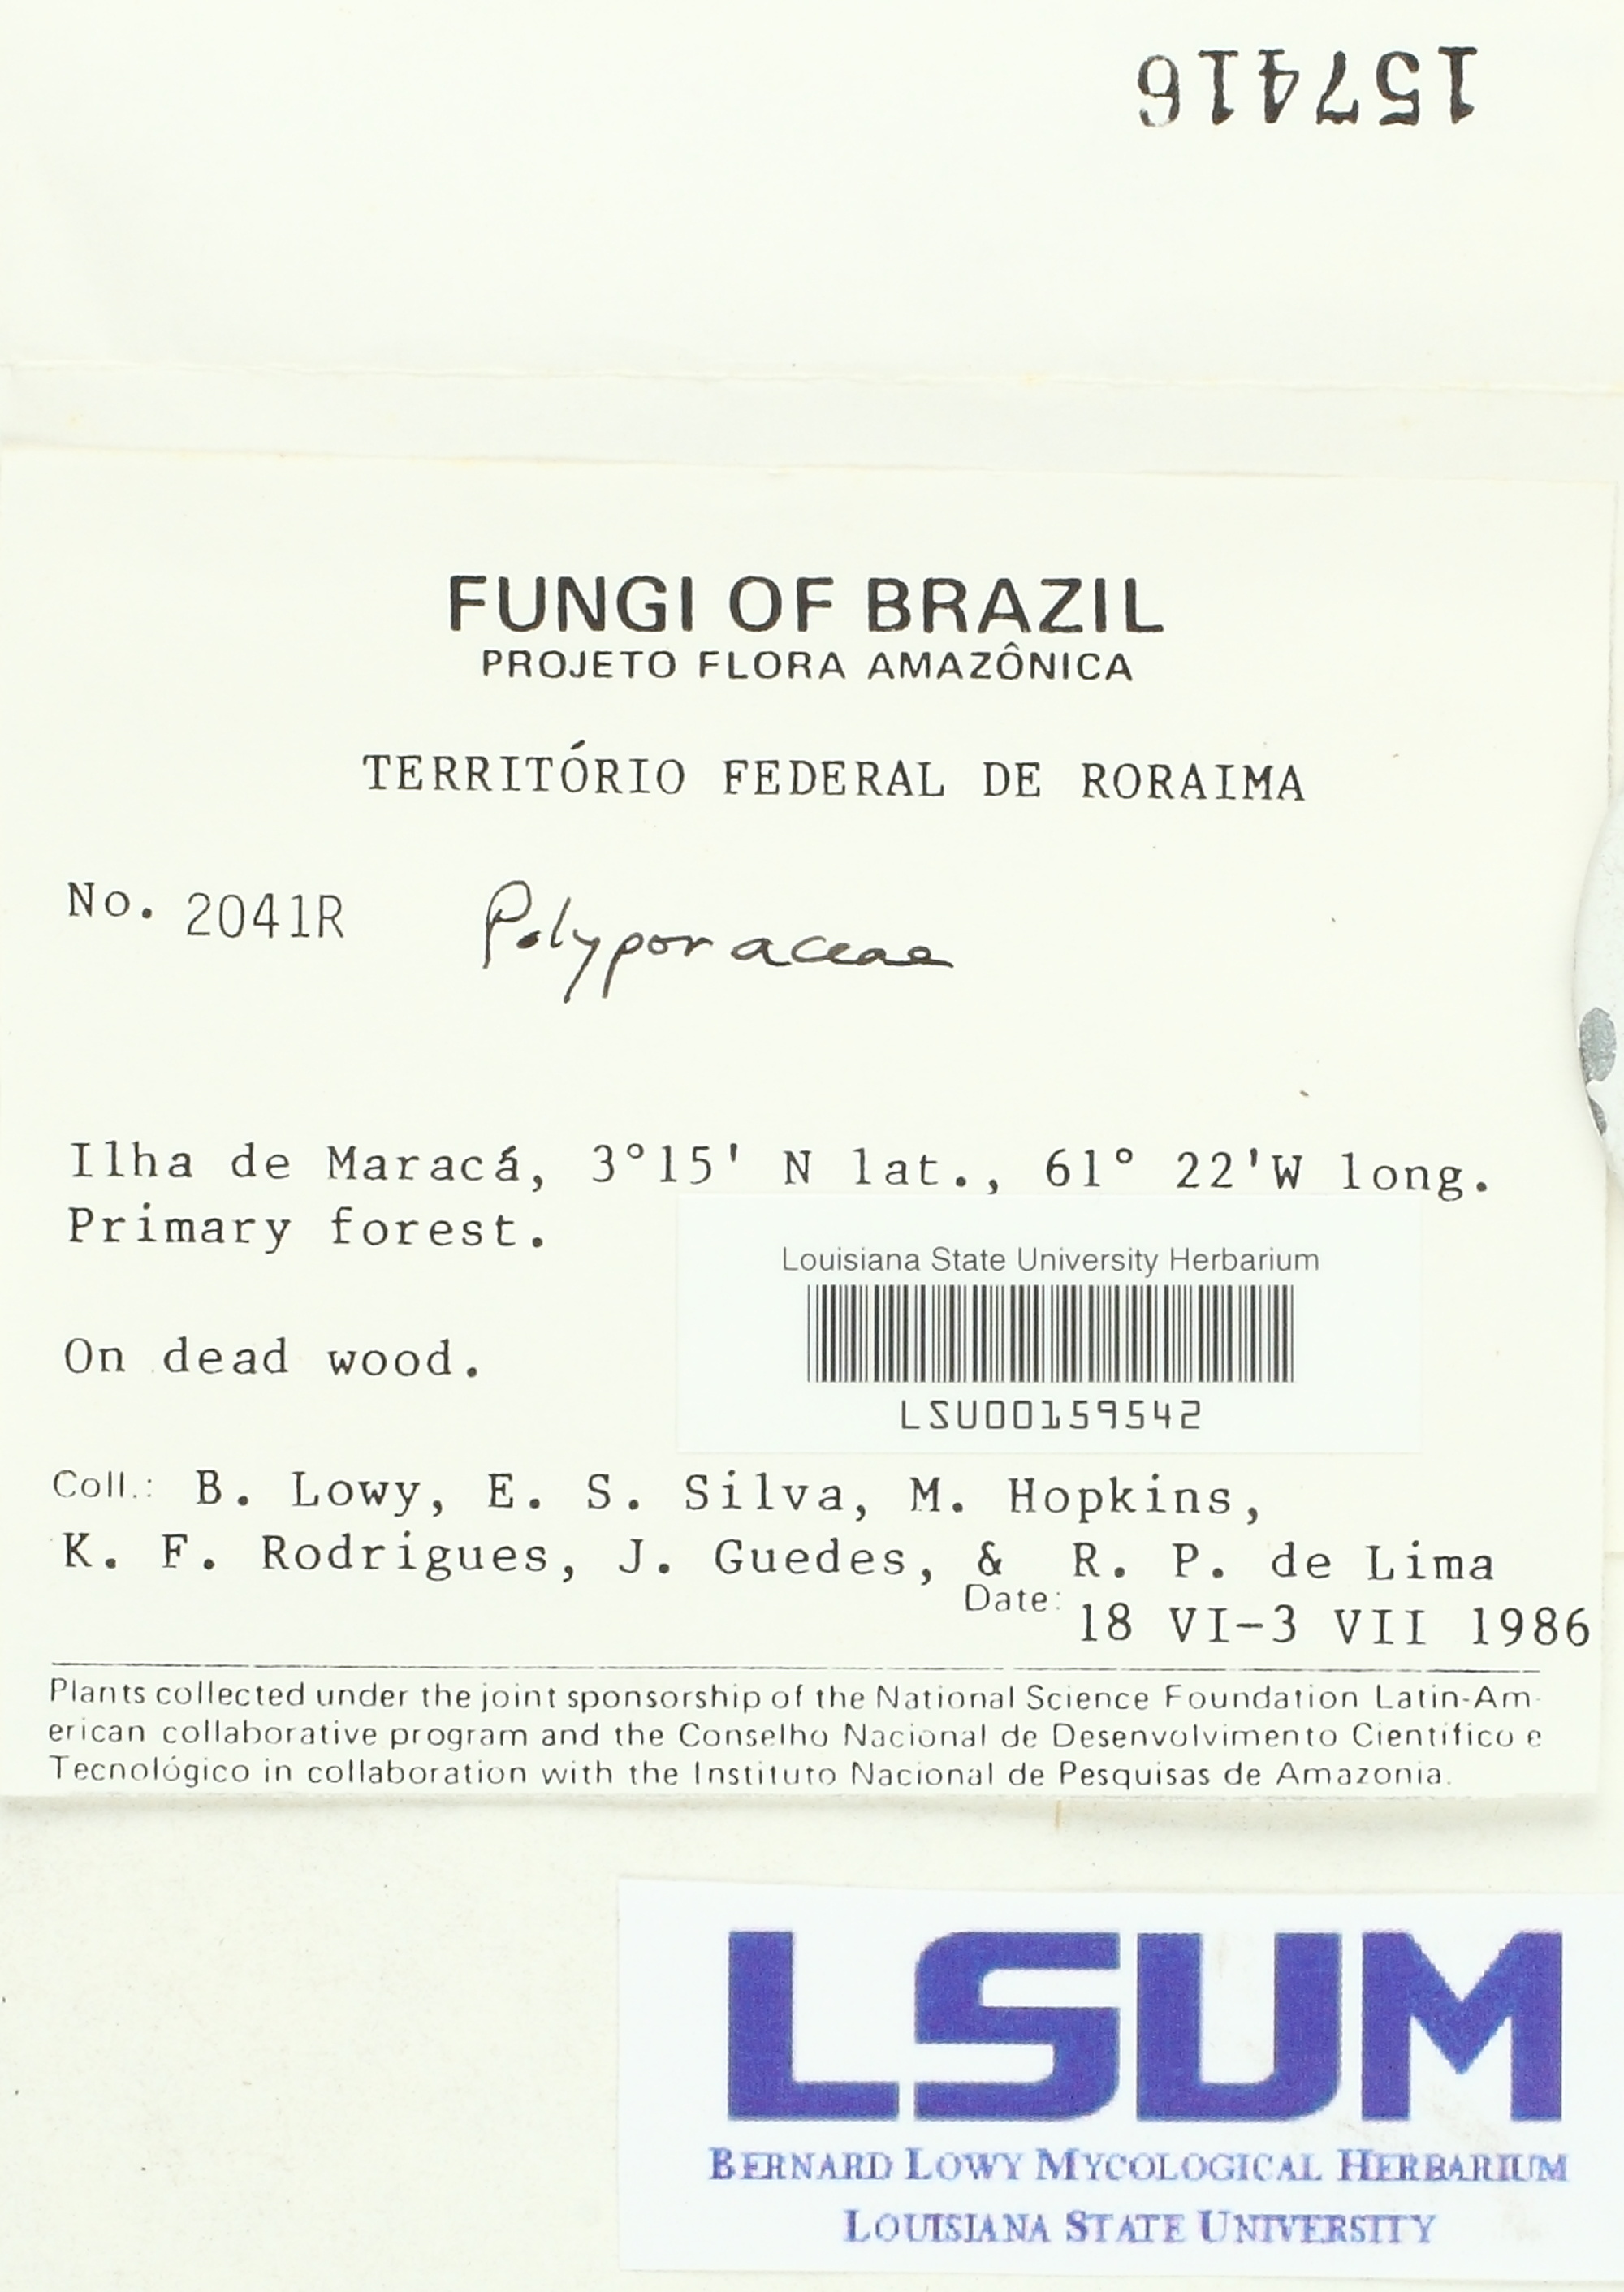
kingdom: Fungi
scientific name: Fungi
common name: Fungi
